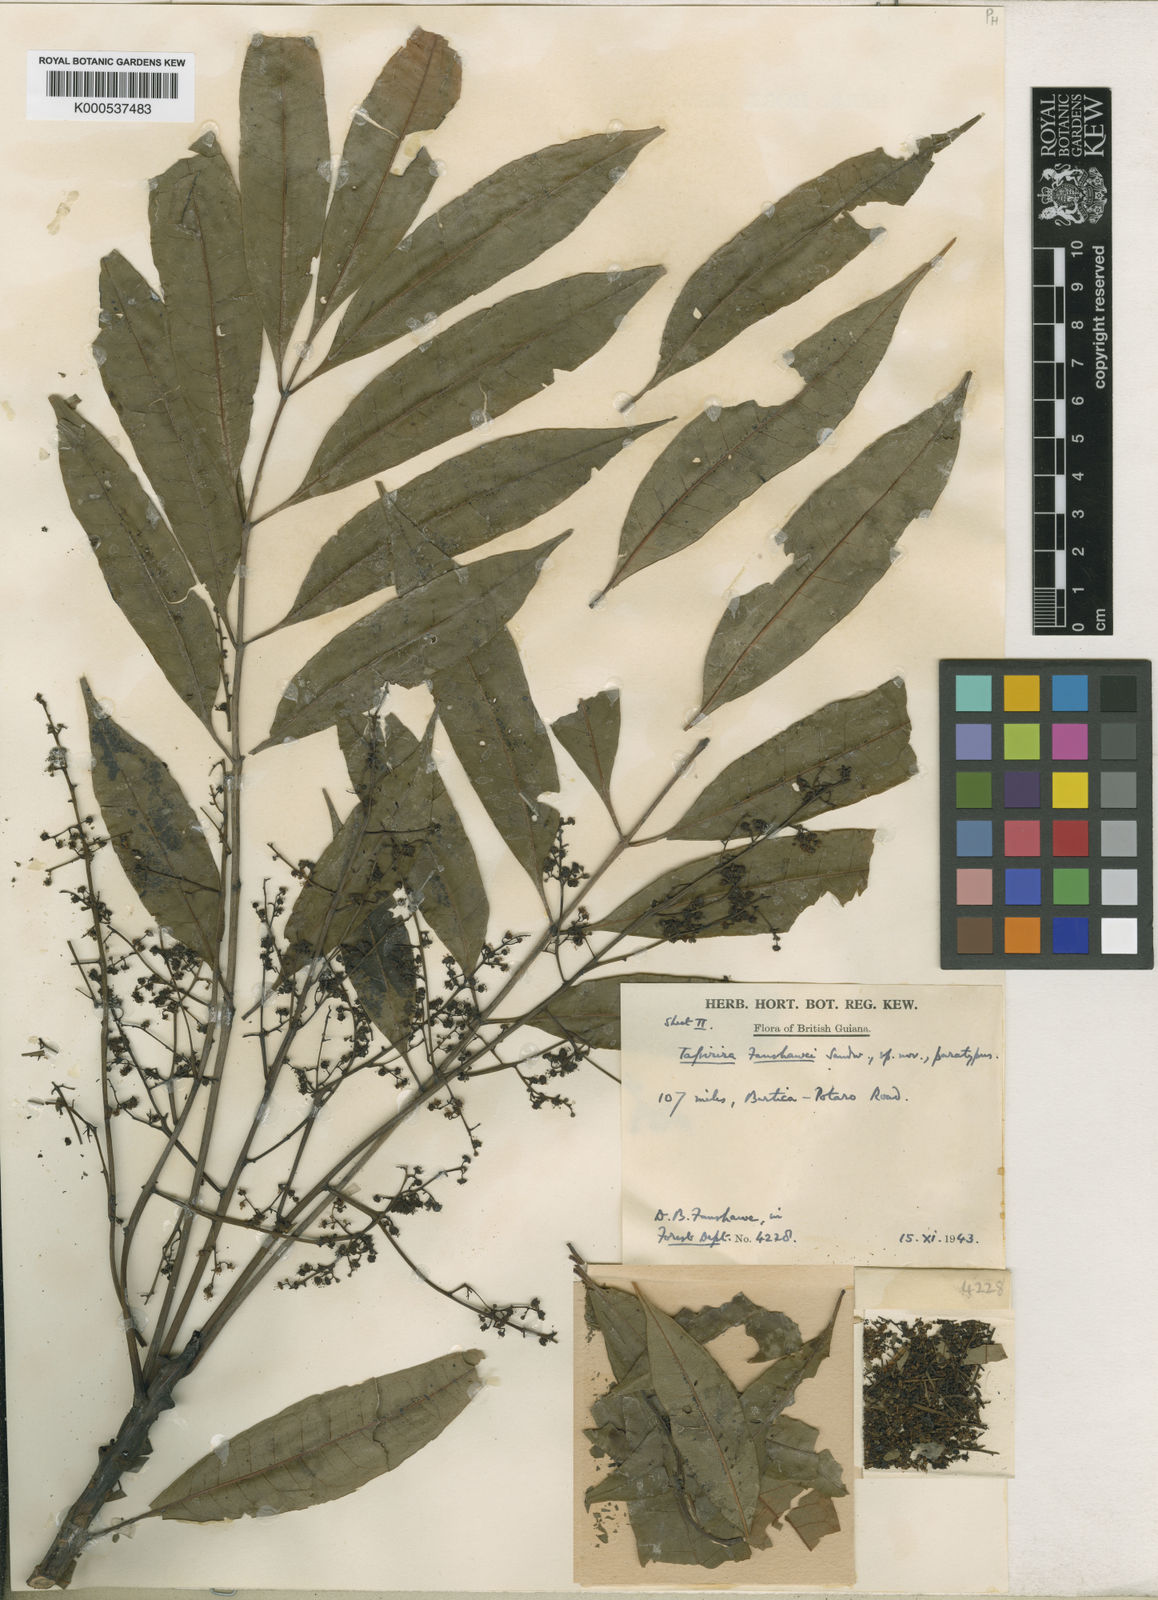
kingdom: Plantae
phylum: Tracheophyta
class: Magnoliopsida
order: Sapindales
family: Anacardiaceae
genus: Tapirira
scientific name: Tapirira guianensis
